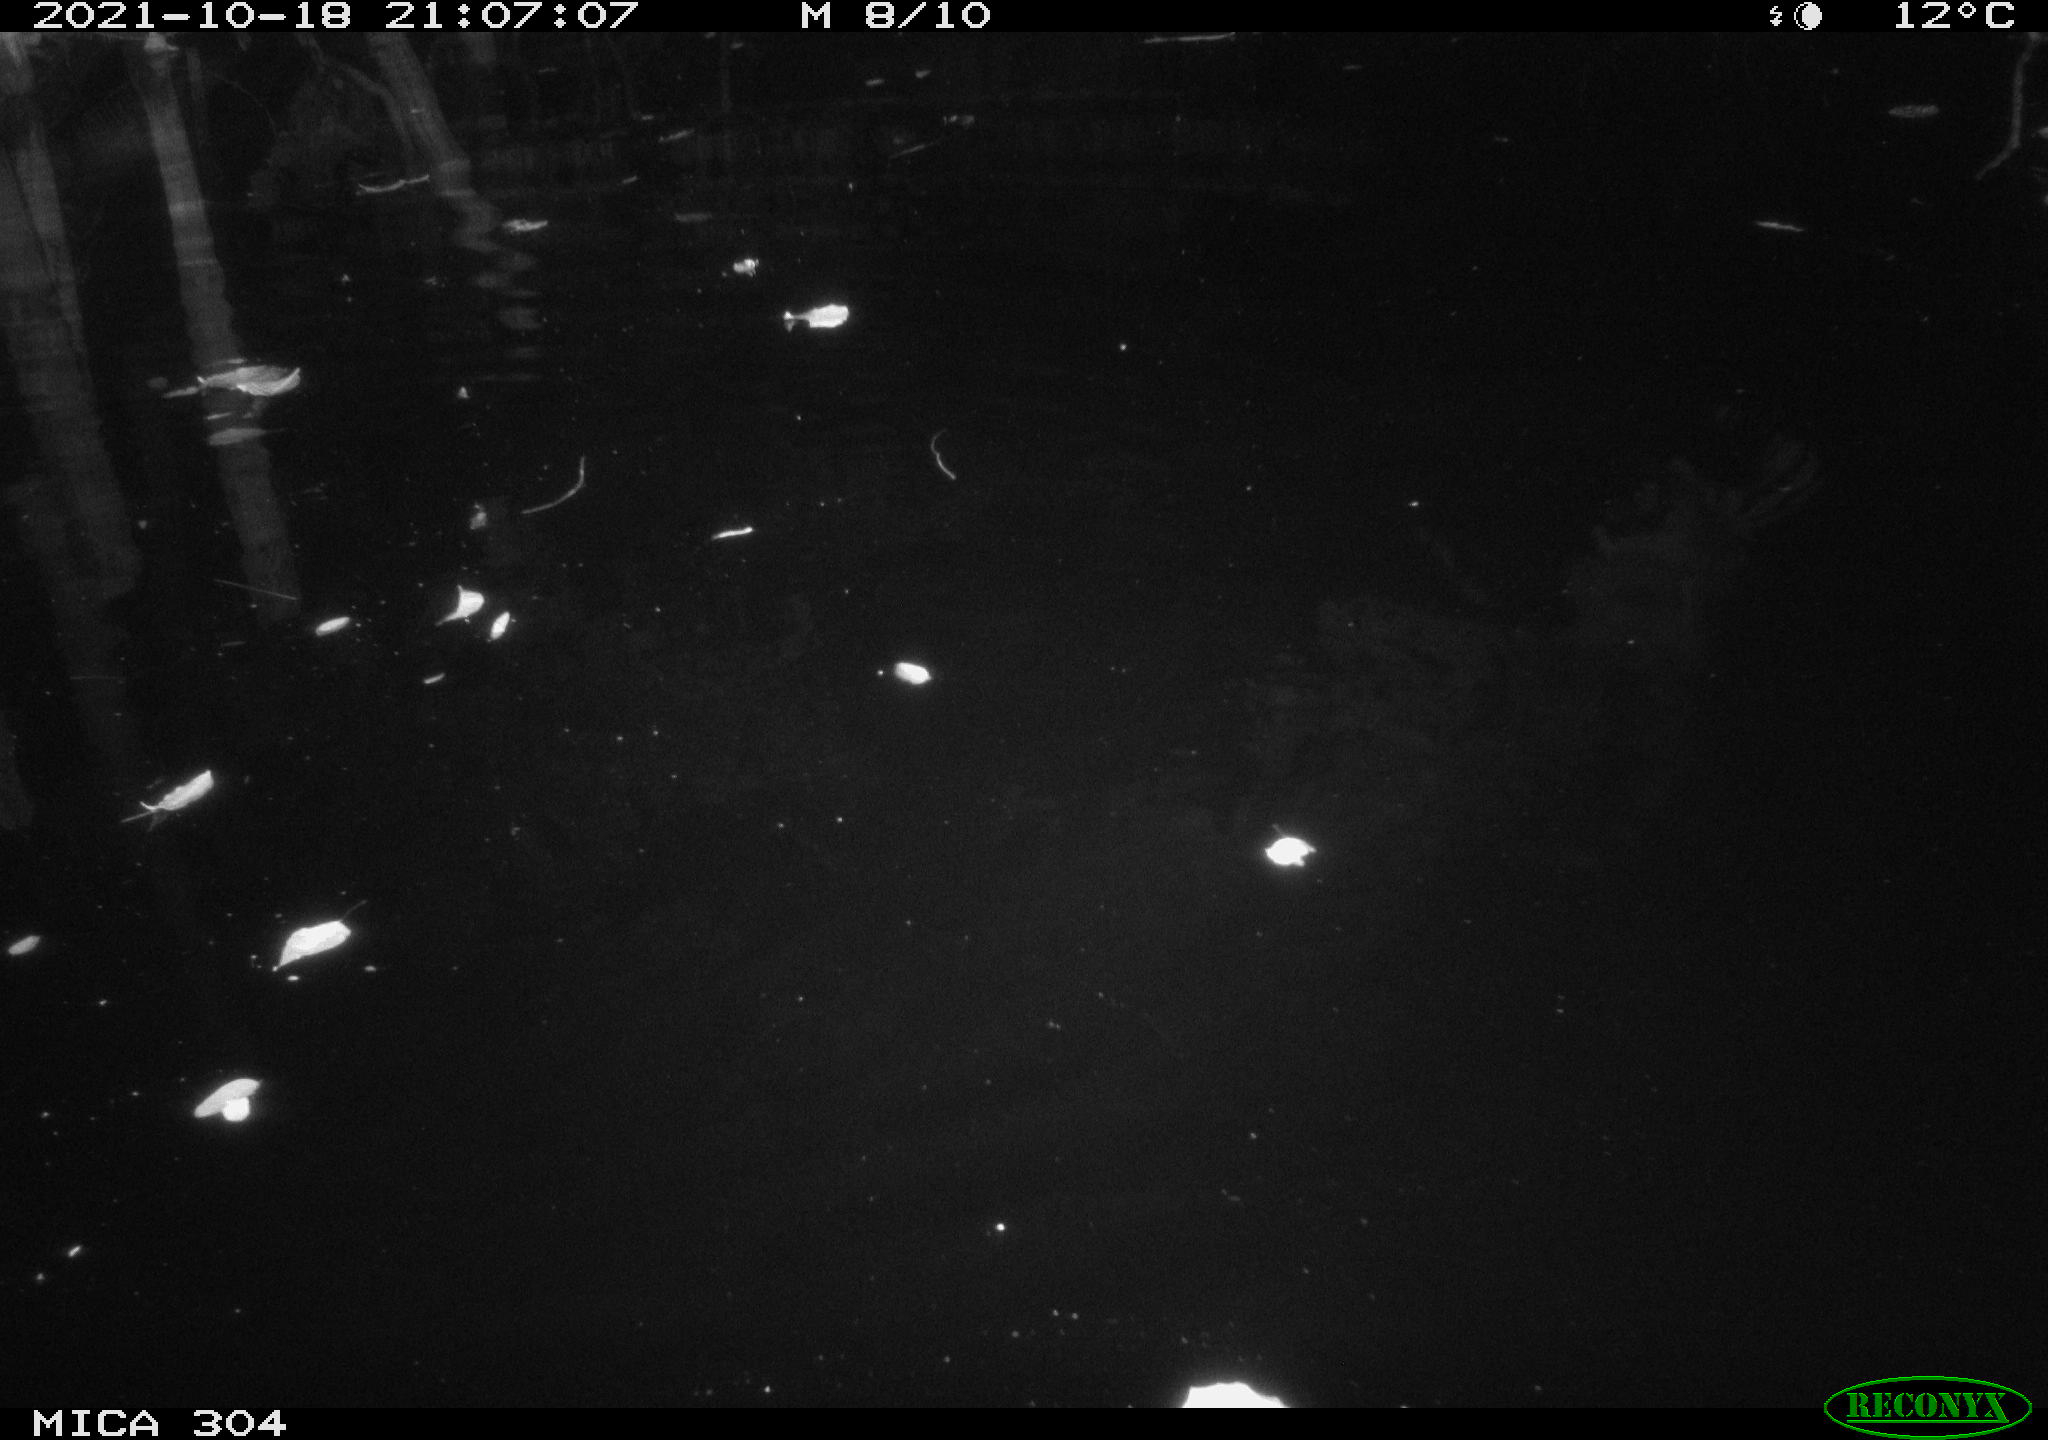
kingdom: Animalia
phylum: Chordata
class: Mammalia
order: Rodentia
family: Muridae
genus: Rattus
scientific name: Rattus norvegicus
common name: Brown rat
